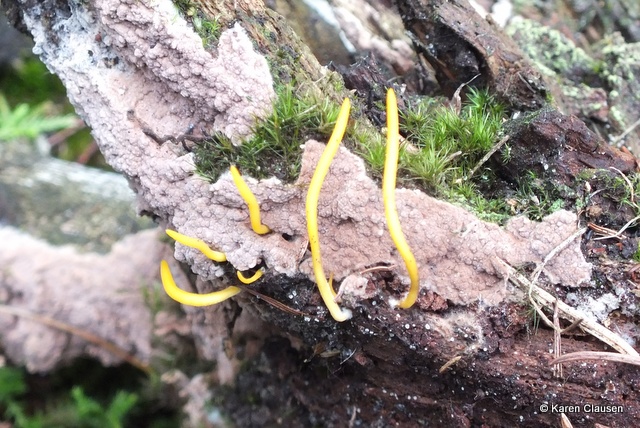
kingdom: Fungi
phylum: Basidiomycota
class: Dacrymycetes
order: Dacrymycetales
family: Dacrymycetaceae
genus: Calocera
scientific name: Calocera cornea
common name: liden guldgaffel
